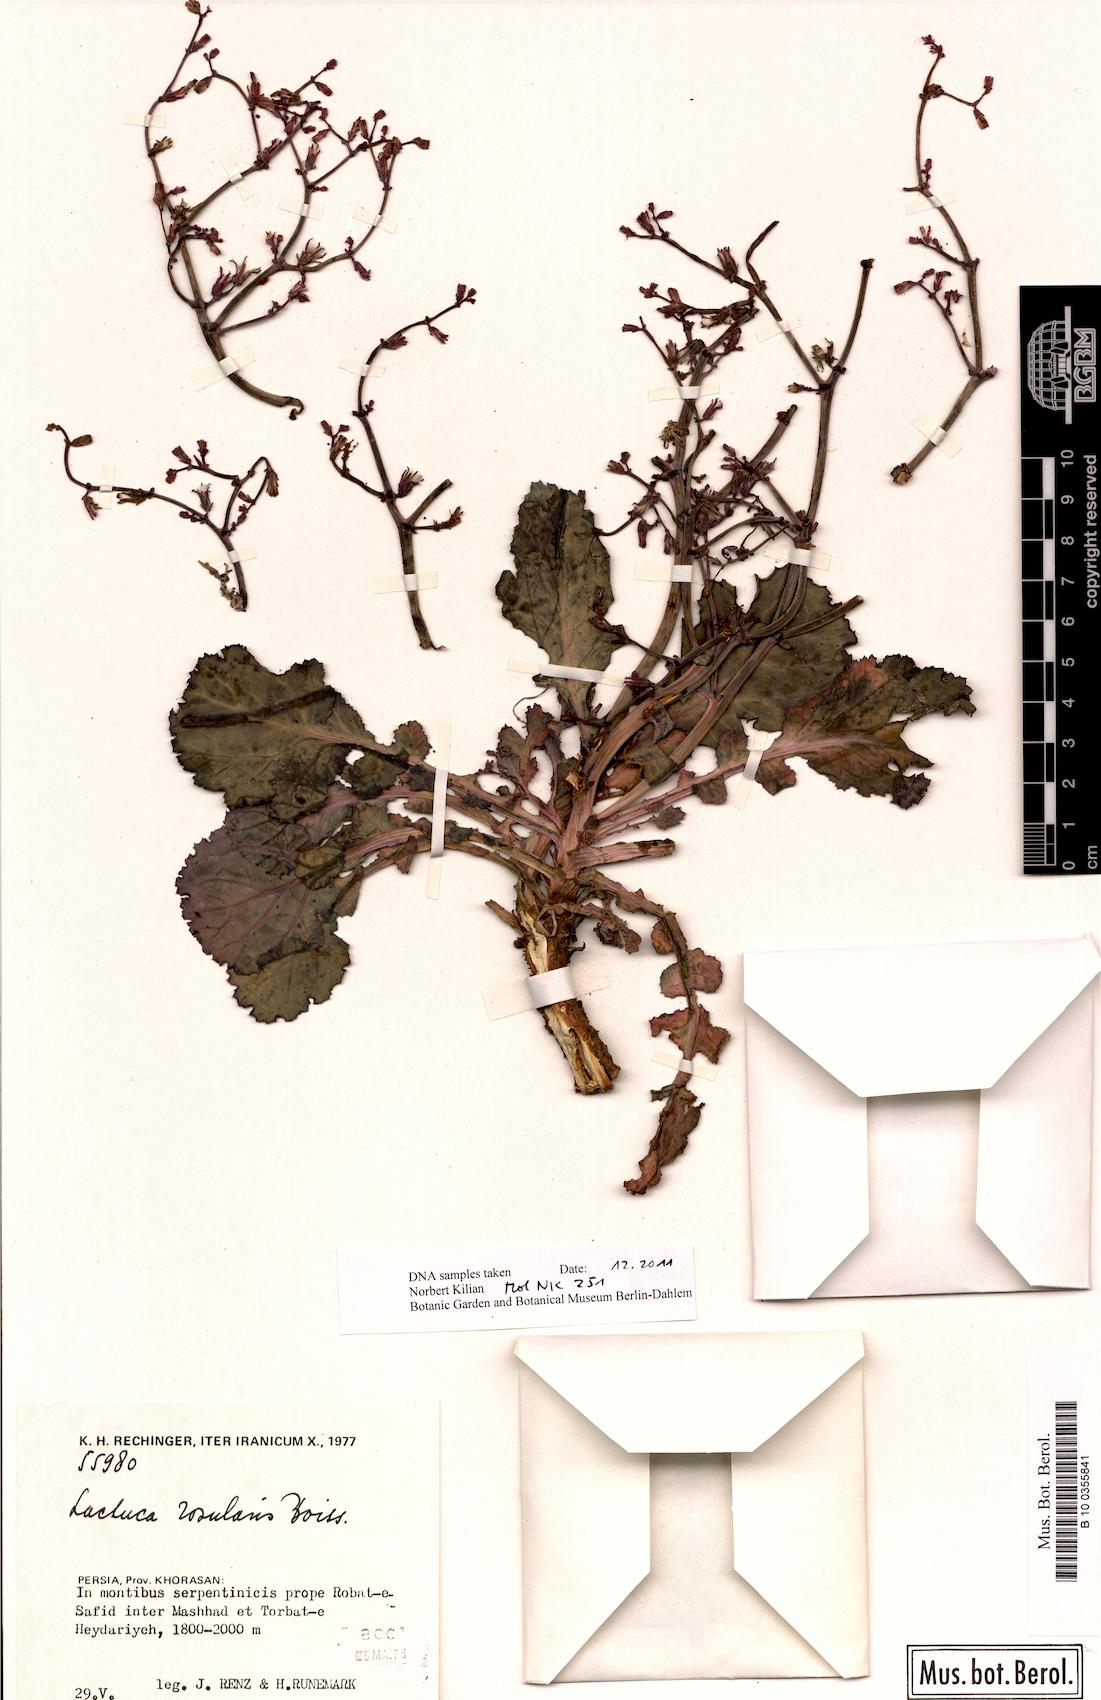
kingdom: Plantae
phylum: Tracheophyta
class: Magnoliopsida
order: Asterales
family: Asteraceae
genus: Lactuca
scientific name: Lactuca rosularis
